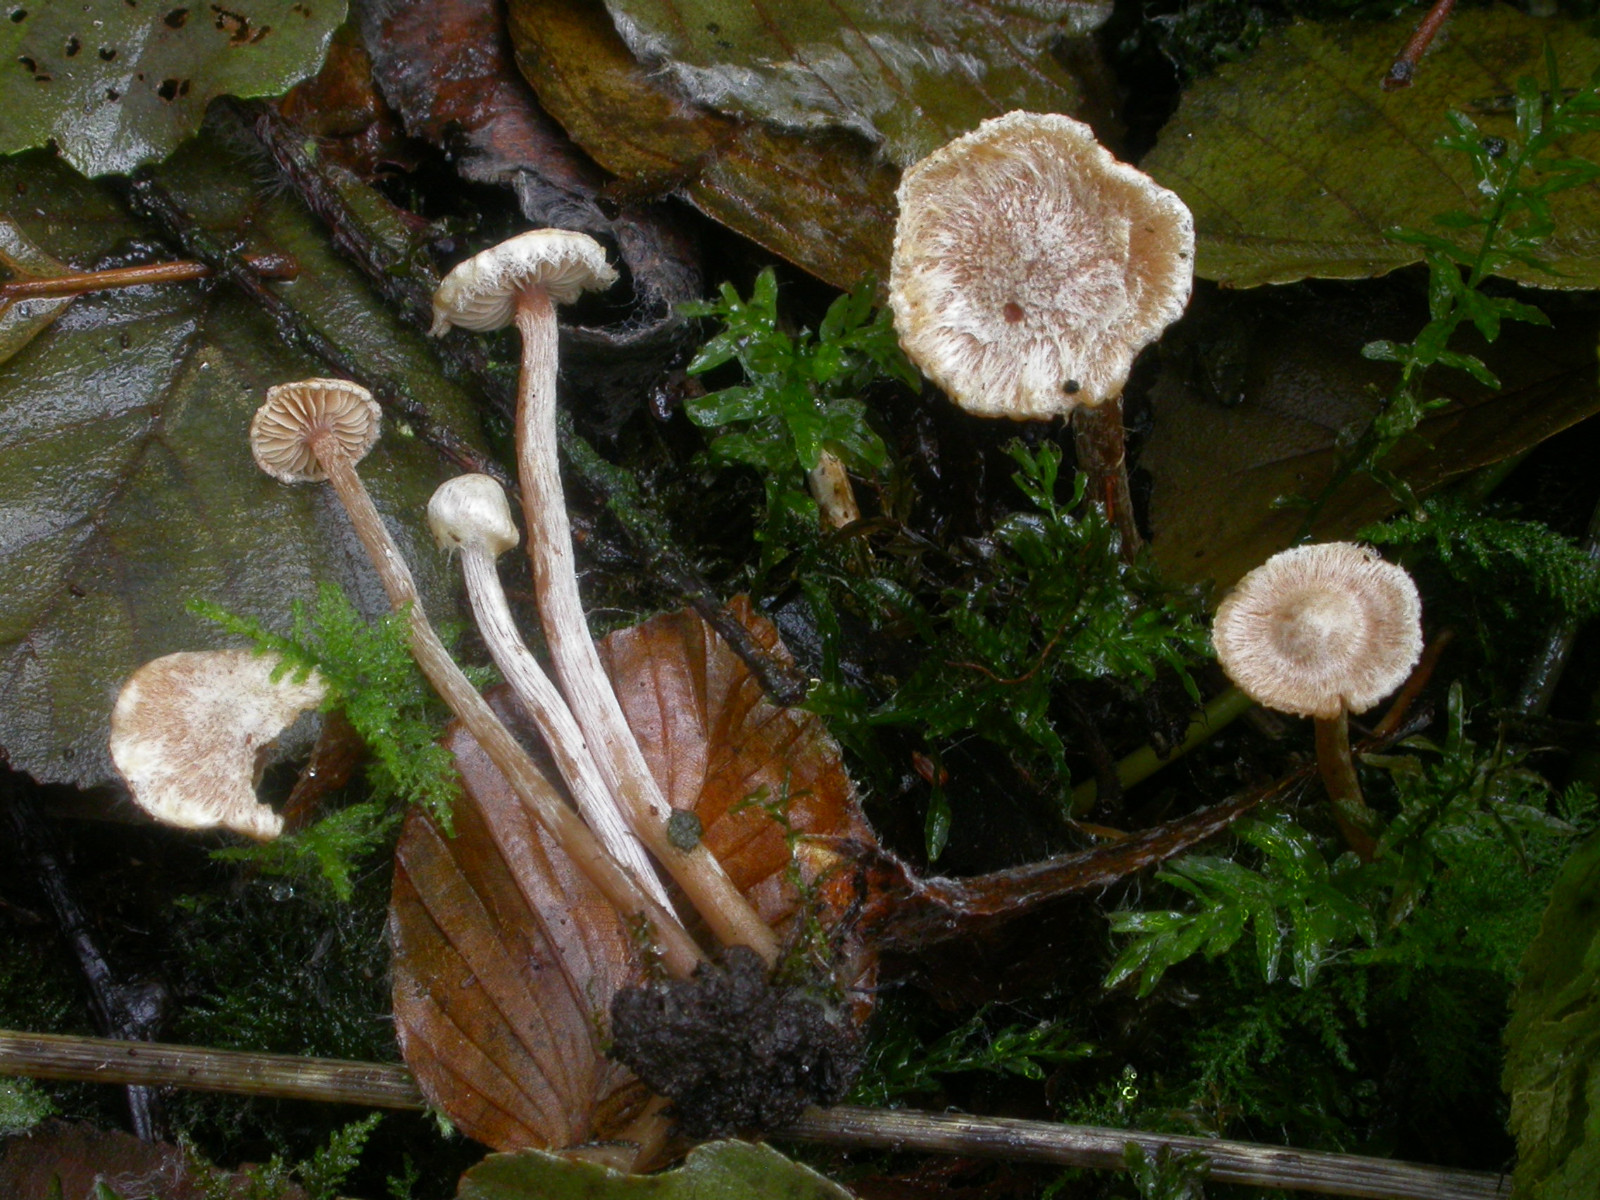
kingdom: Fungi
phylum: Basidiomycota
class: Agaricomycetes
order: Agaricales
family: Hymenogastraceae
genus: Naucoria
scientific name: Naucoria luteolofibrillosa
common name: slør-knaphat
